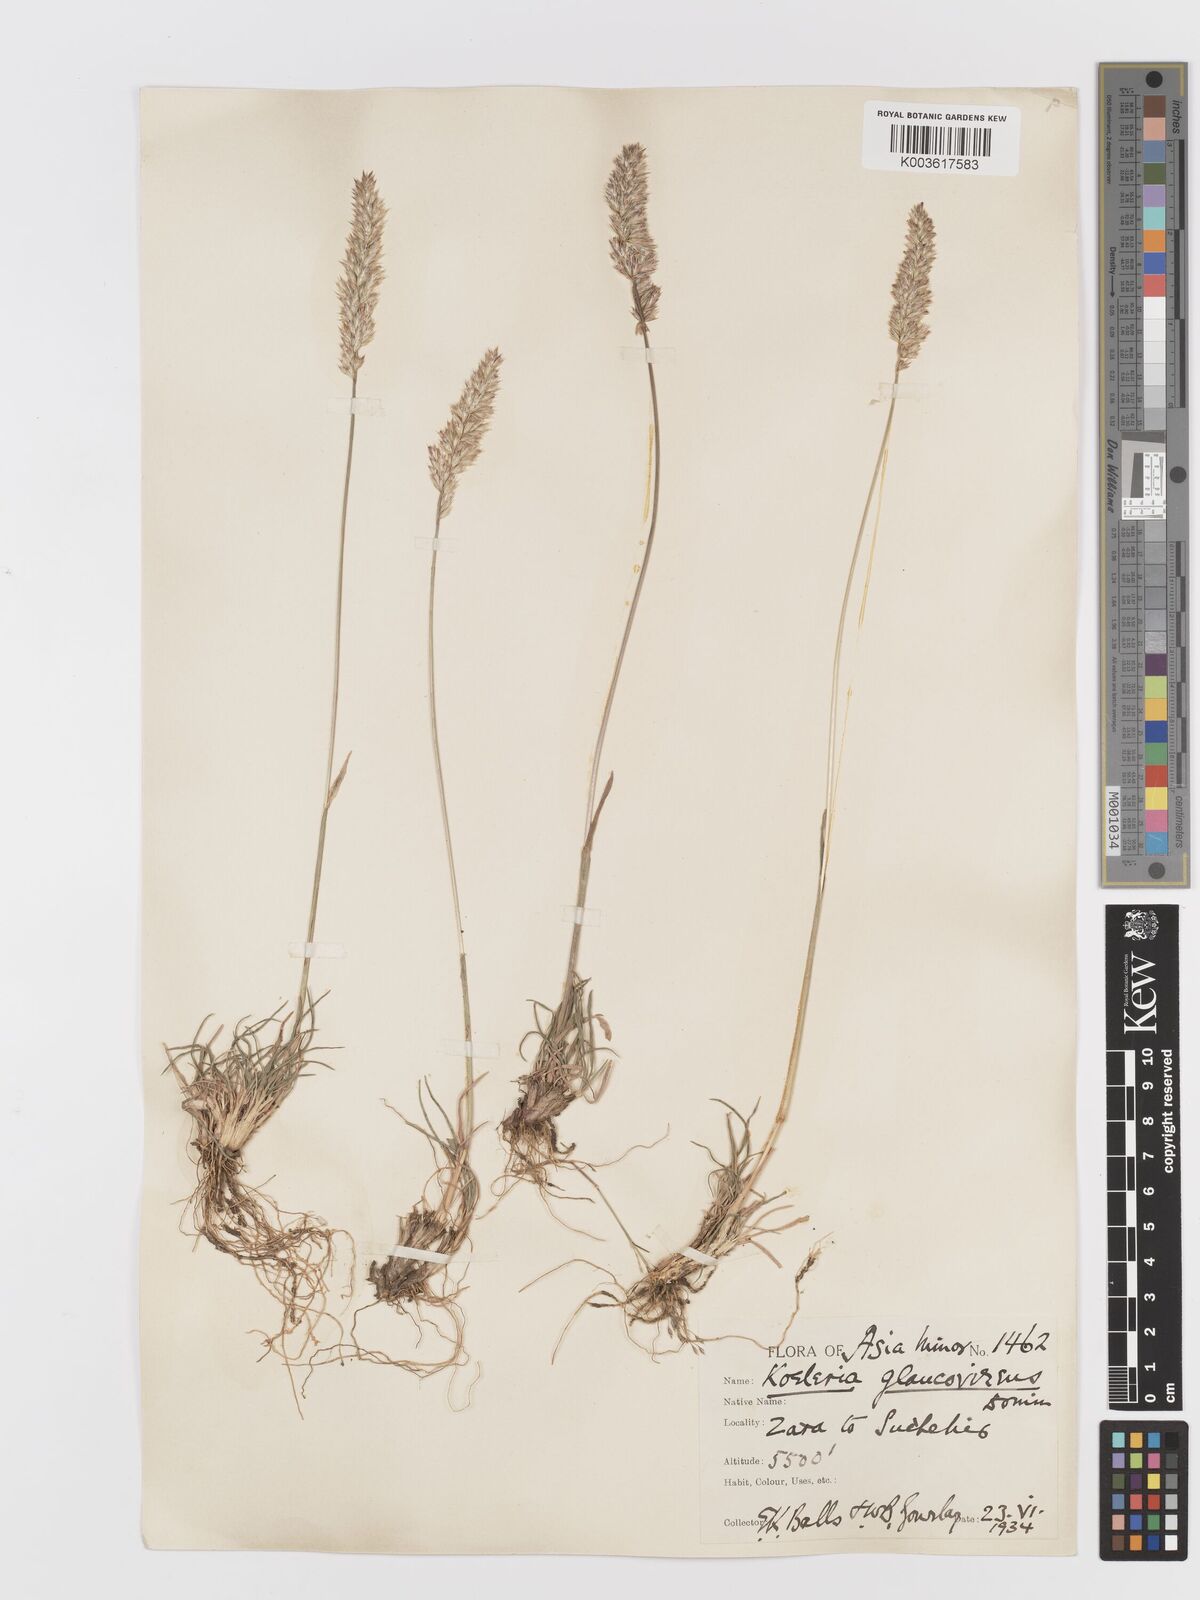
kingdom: Plantae
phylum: Tracheophyta
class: Liliopsida
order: Poales
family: Poaceae
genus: Koeleria
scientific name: Koeleria macrantha
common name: Crested hair-grass
